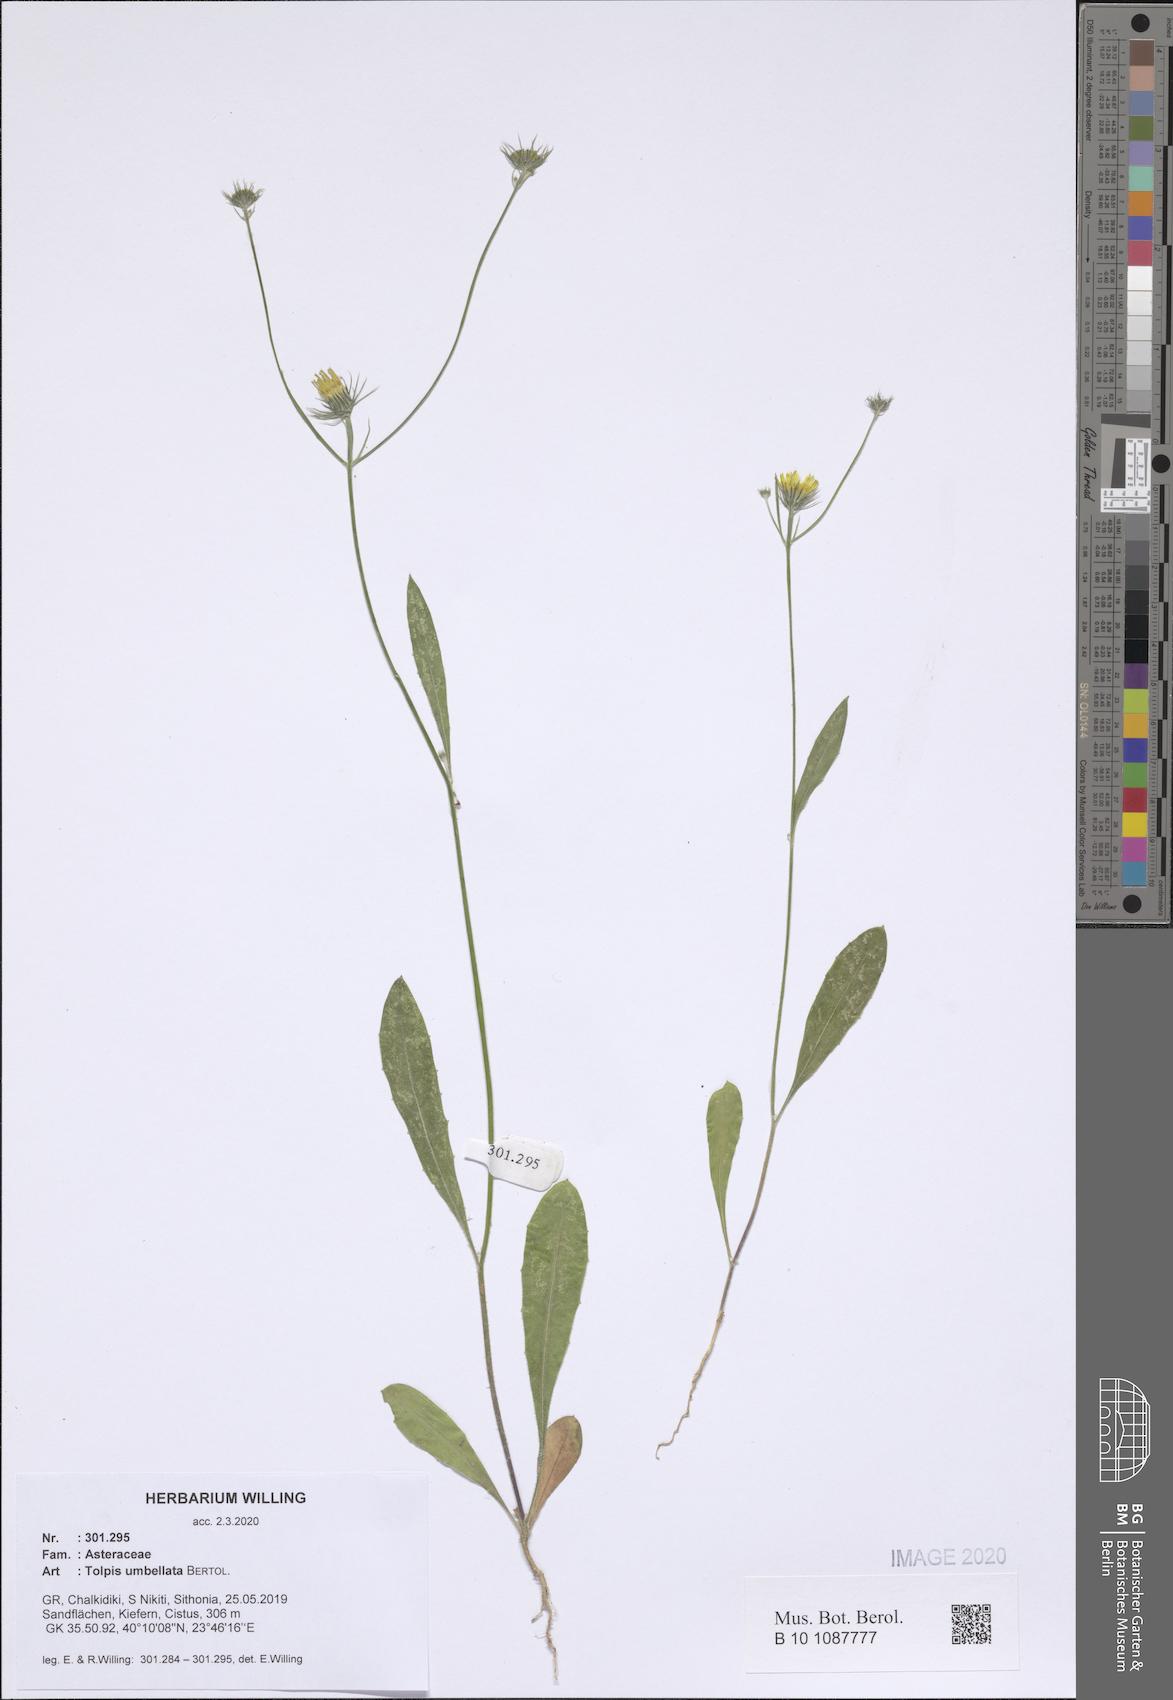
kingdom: Plantae
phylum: Tracheophyta
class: Magnoliopsida
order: Asterales
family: Asteraceae
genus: Tolpis
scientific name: Tolpis umbellata
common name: Yellow hawkweed
